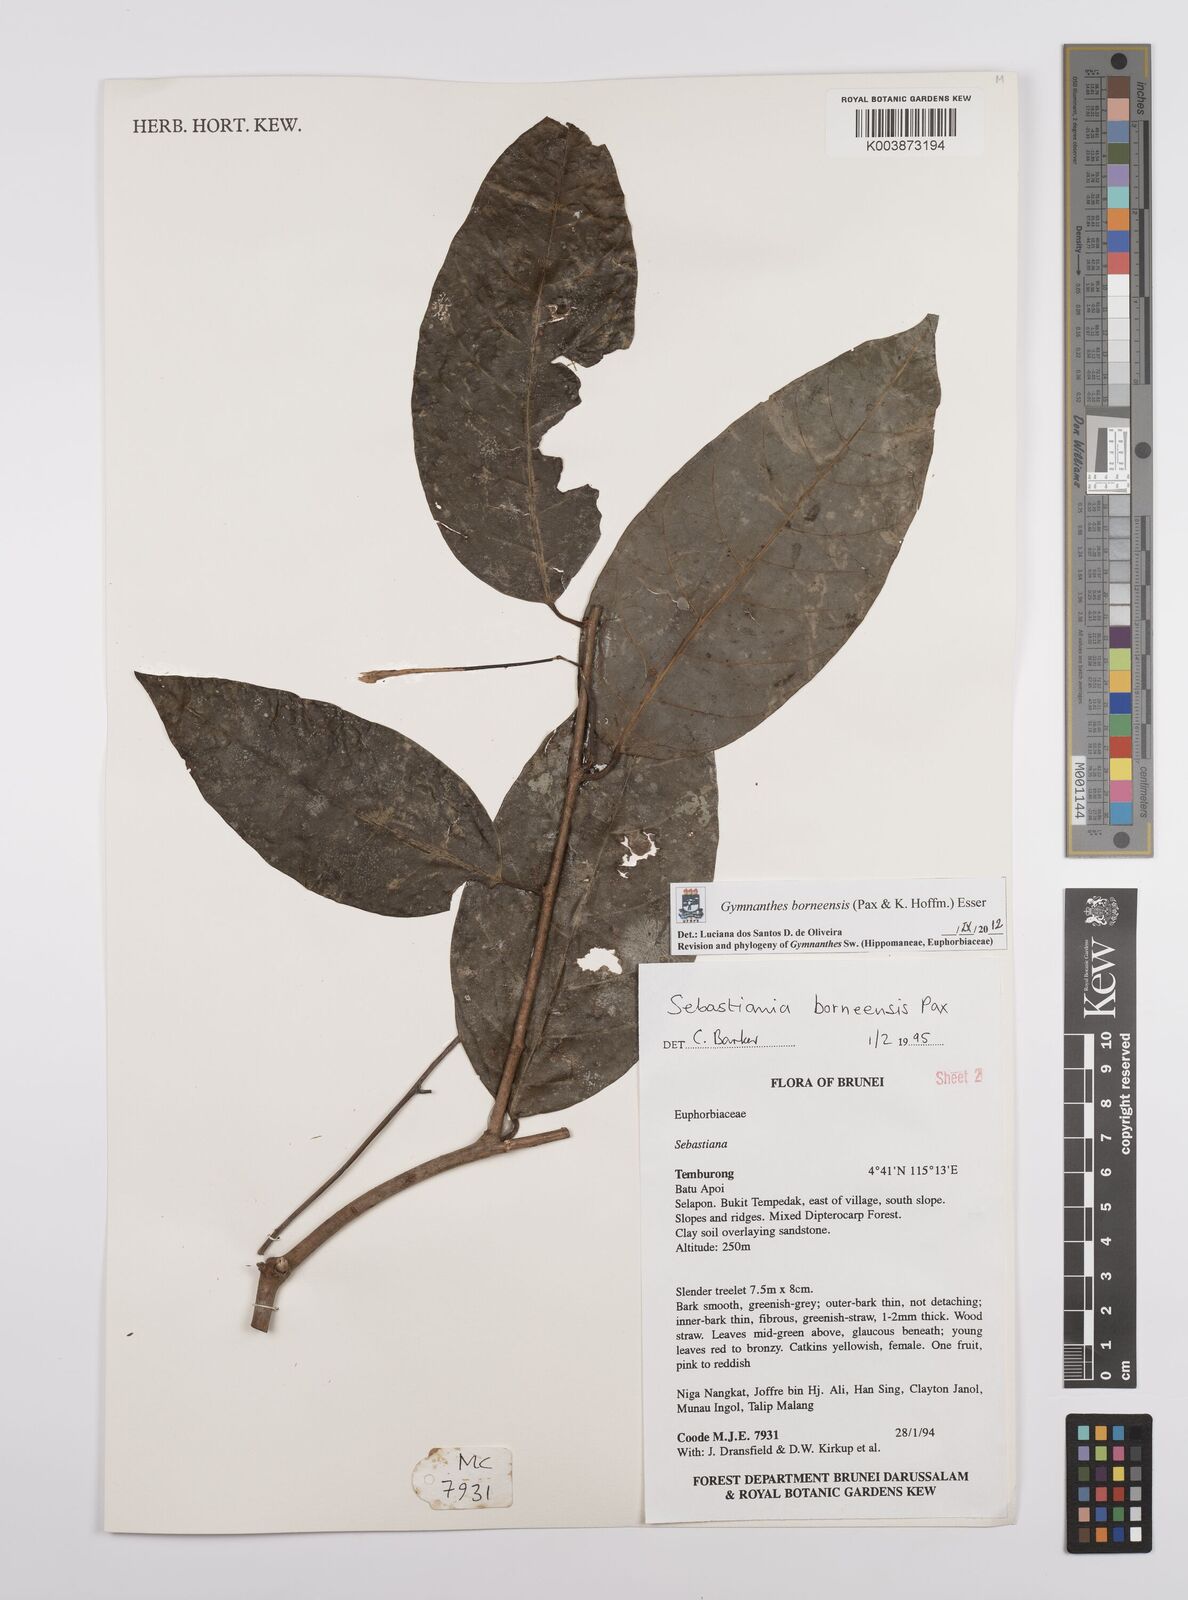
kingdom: Plantae
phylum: Tracheophyta
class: Magnoliopsida
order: Malpighiales
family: Euphorbiaceae
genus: Gymnanthes
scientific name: Gymnanthes borneensis
